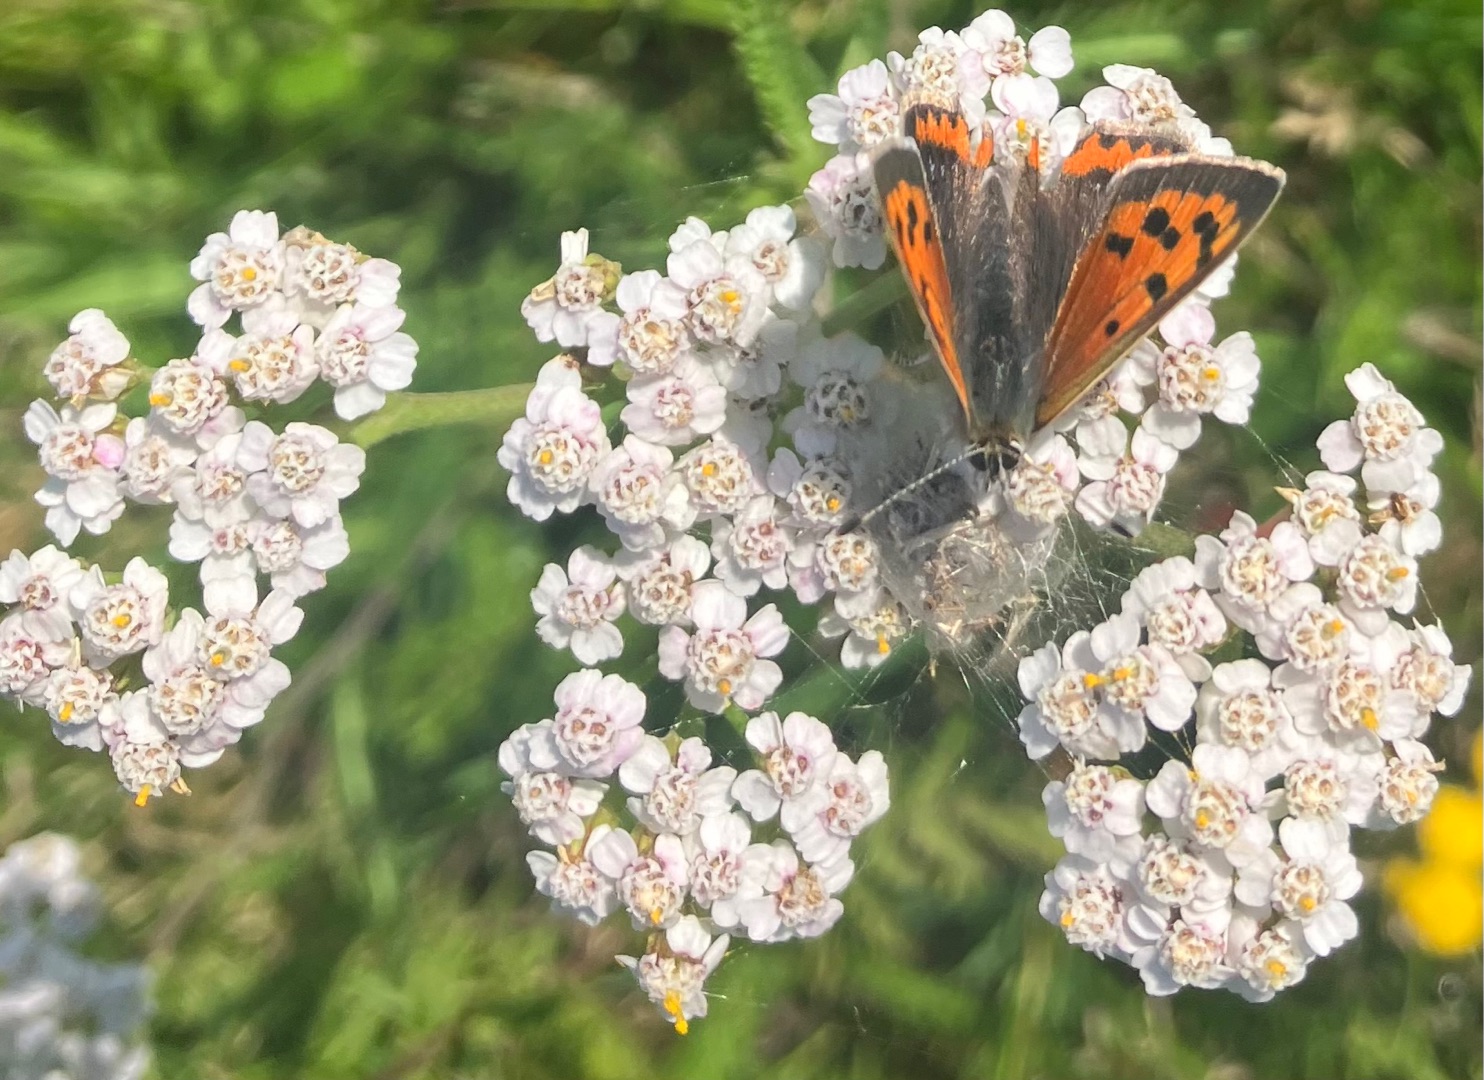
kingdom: Animalia
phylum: Arthropoda
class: Insecta
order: Lepidoptera
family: Lycaenidae
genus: Lycaena
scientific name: Lycaena phlaeas
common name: Lille ildfugl
